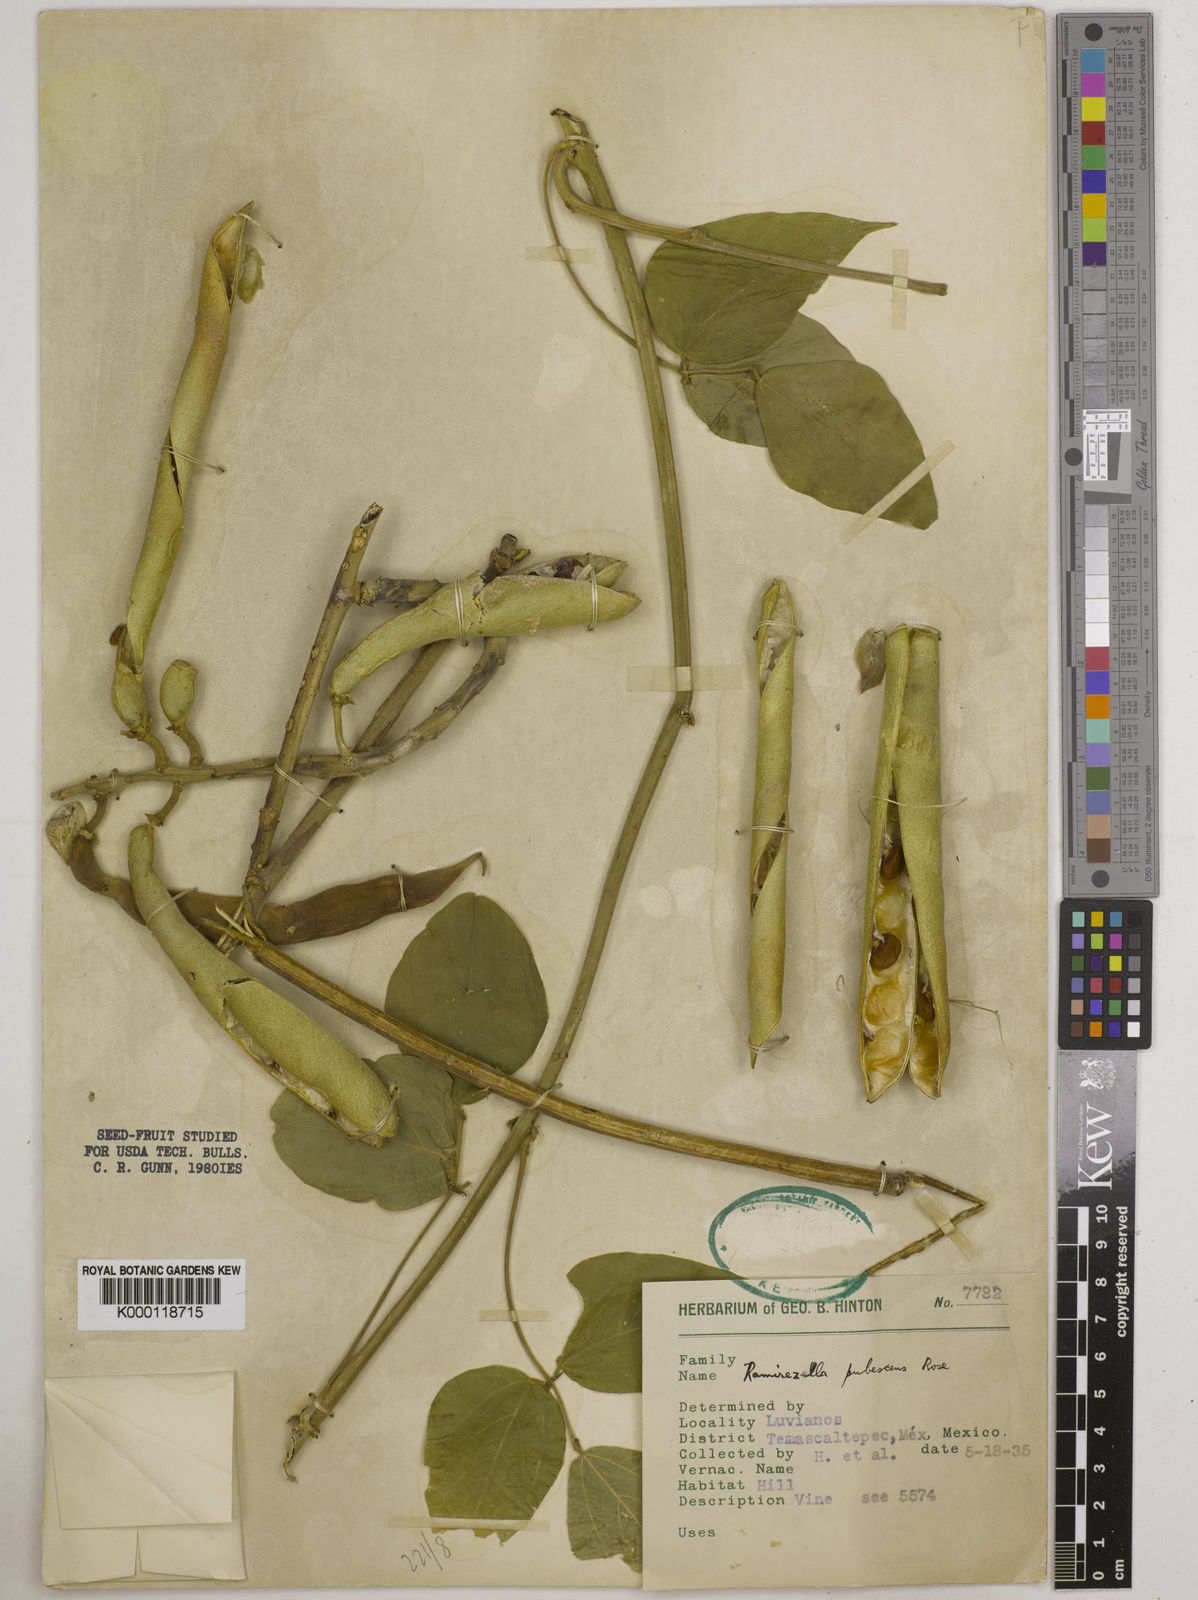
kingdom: Plantae
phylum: Tracheophyta
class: Magnoliopsida
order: Fabales
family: Fabaceae
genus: Ramirezella
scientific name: Ramirezella strobilophora
